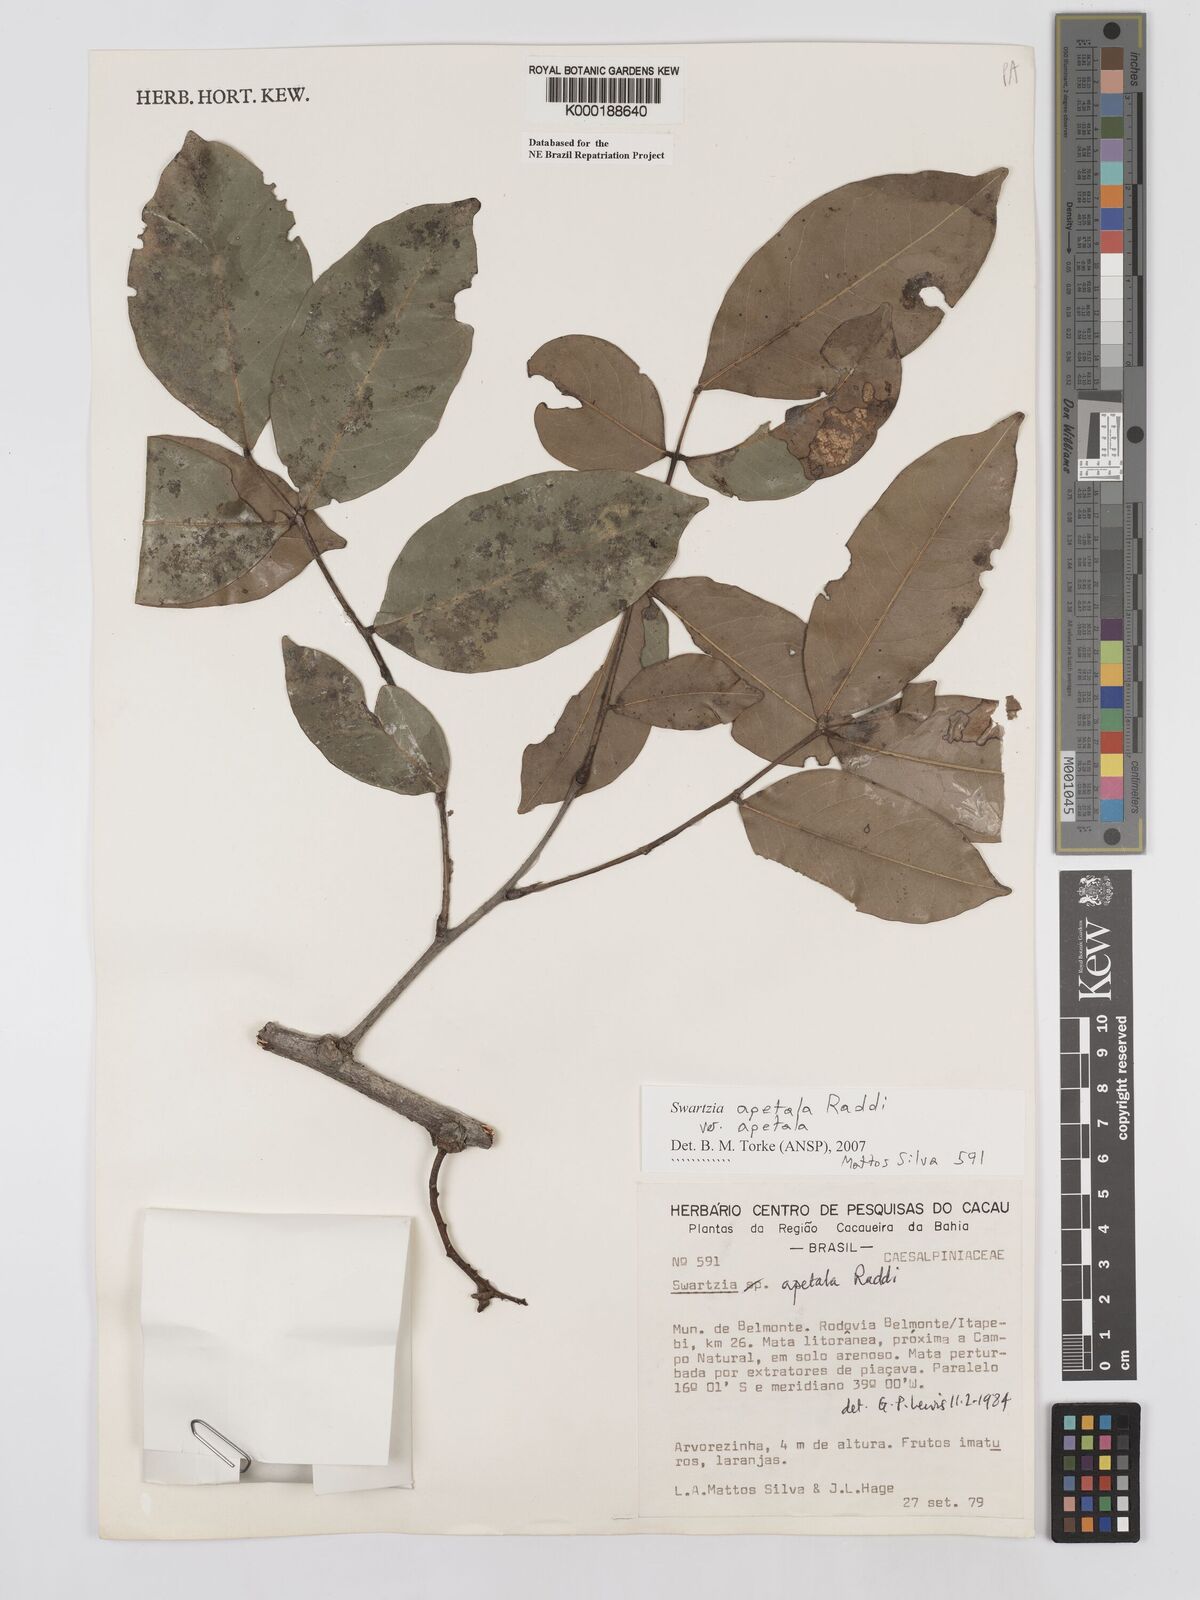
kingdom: Plantae
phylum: Tracheophyta
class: Magnoliopsida
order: Fabales
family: Fabaceae
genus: Swartzia
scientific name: Swartzia apetala
